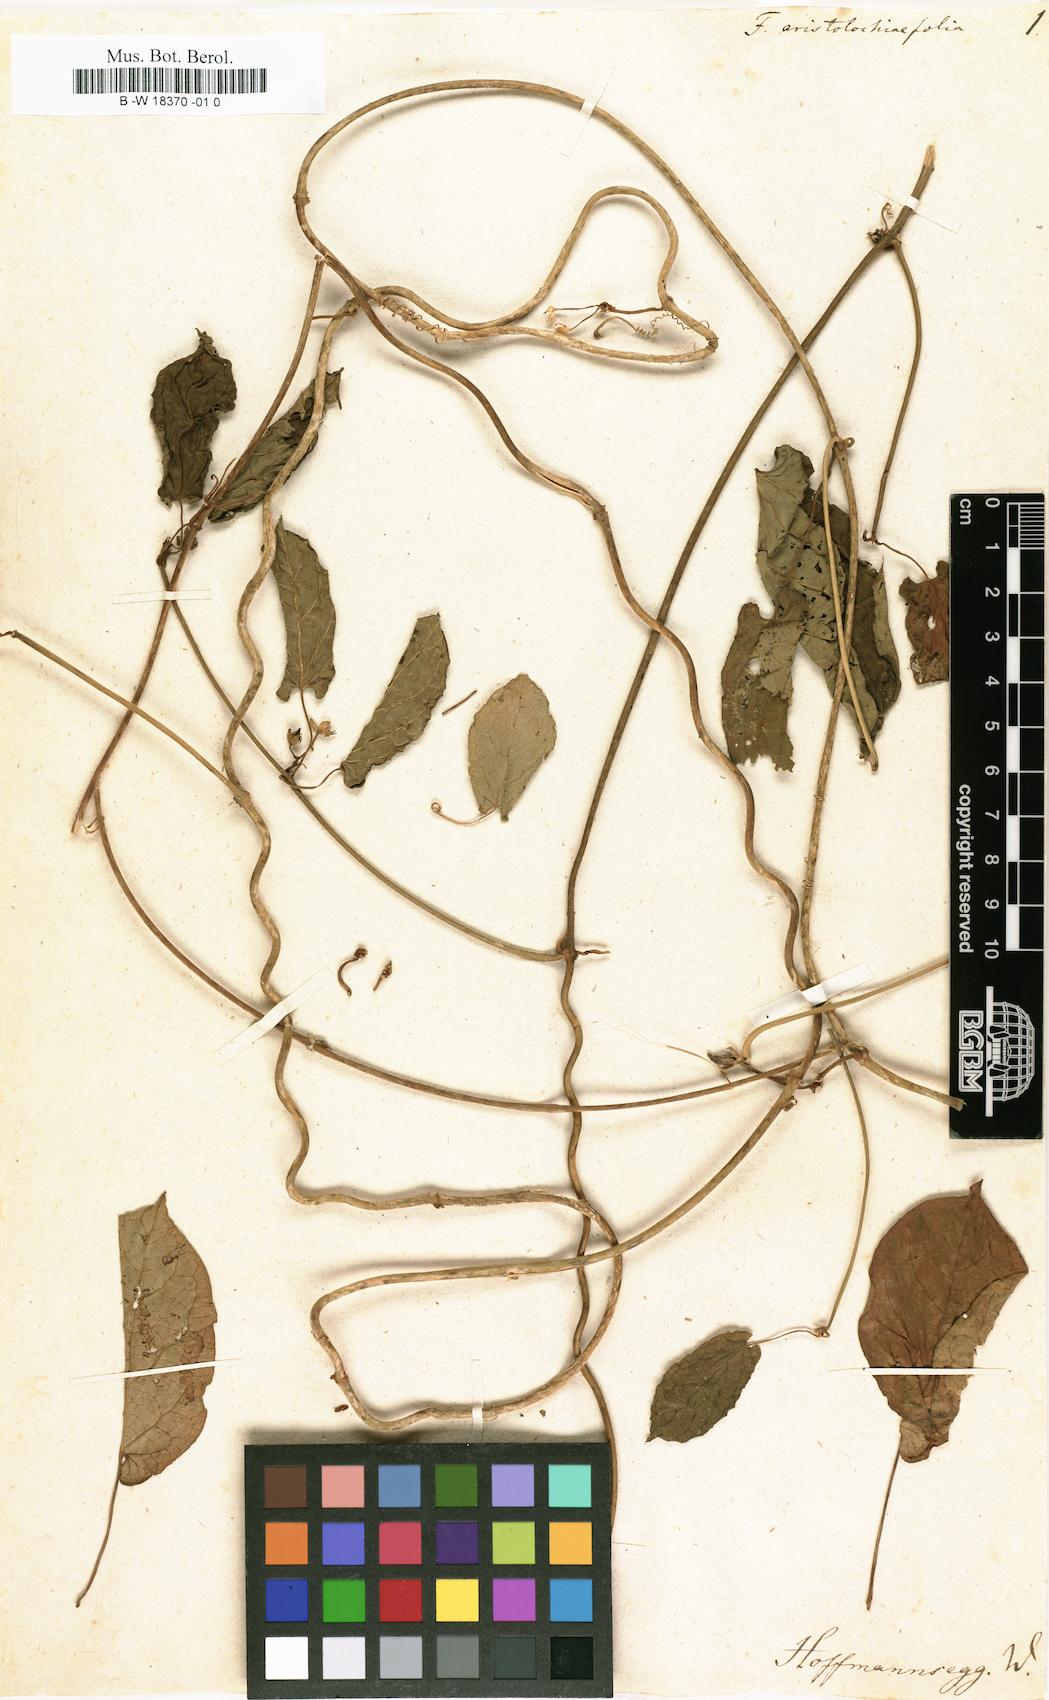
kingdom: Plantae
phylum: Tracheophyta
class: Magnoliopsida
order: Cucurbitales
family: Cucurbitaceae
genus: Feuillea
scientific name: Feuillea
